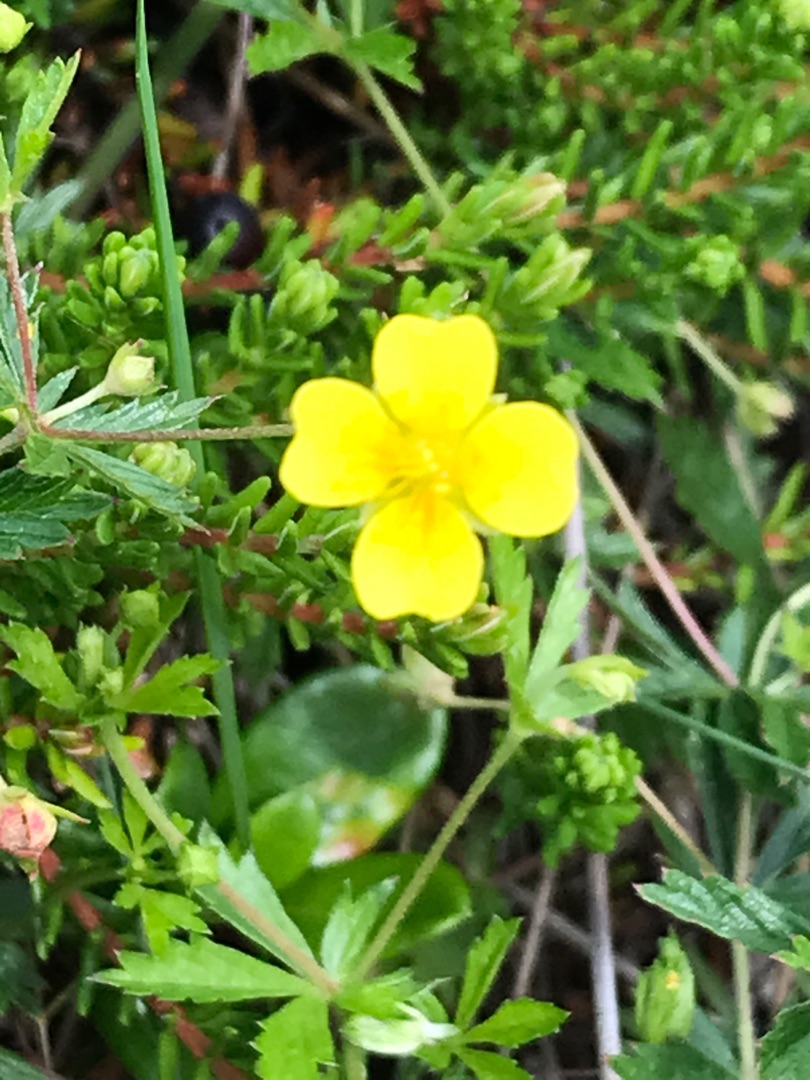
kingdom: Plantae
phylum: Tracheophyta
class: Magnoliopsida
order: Rosales
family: Rosaceae
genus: Potentilla
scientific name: Potentilla erecta
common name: Tormentil
